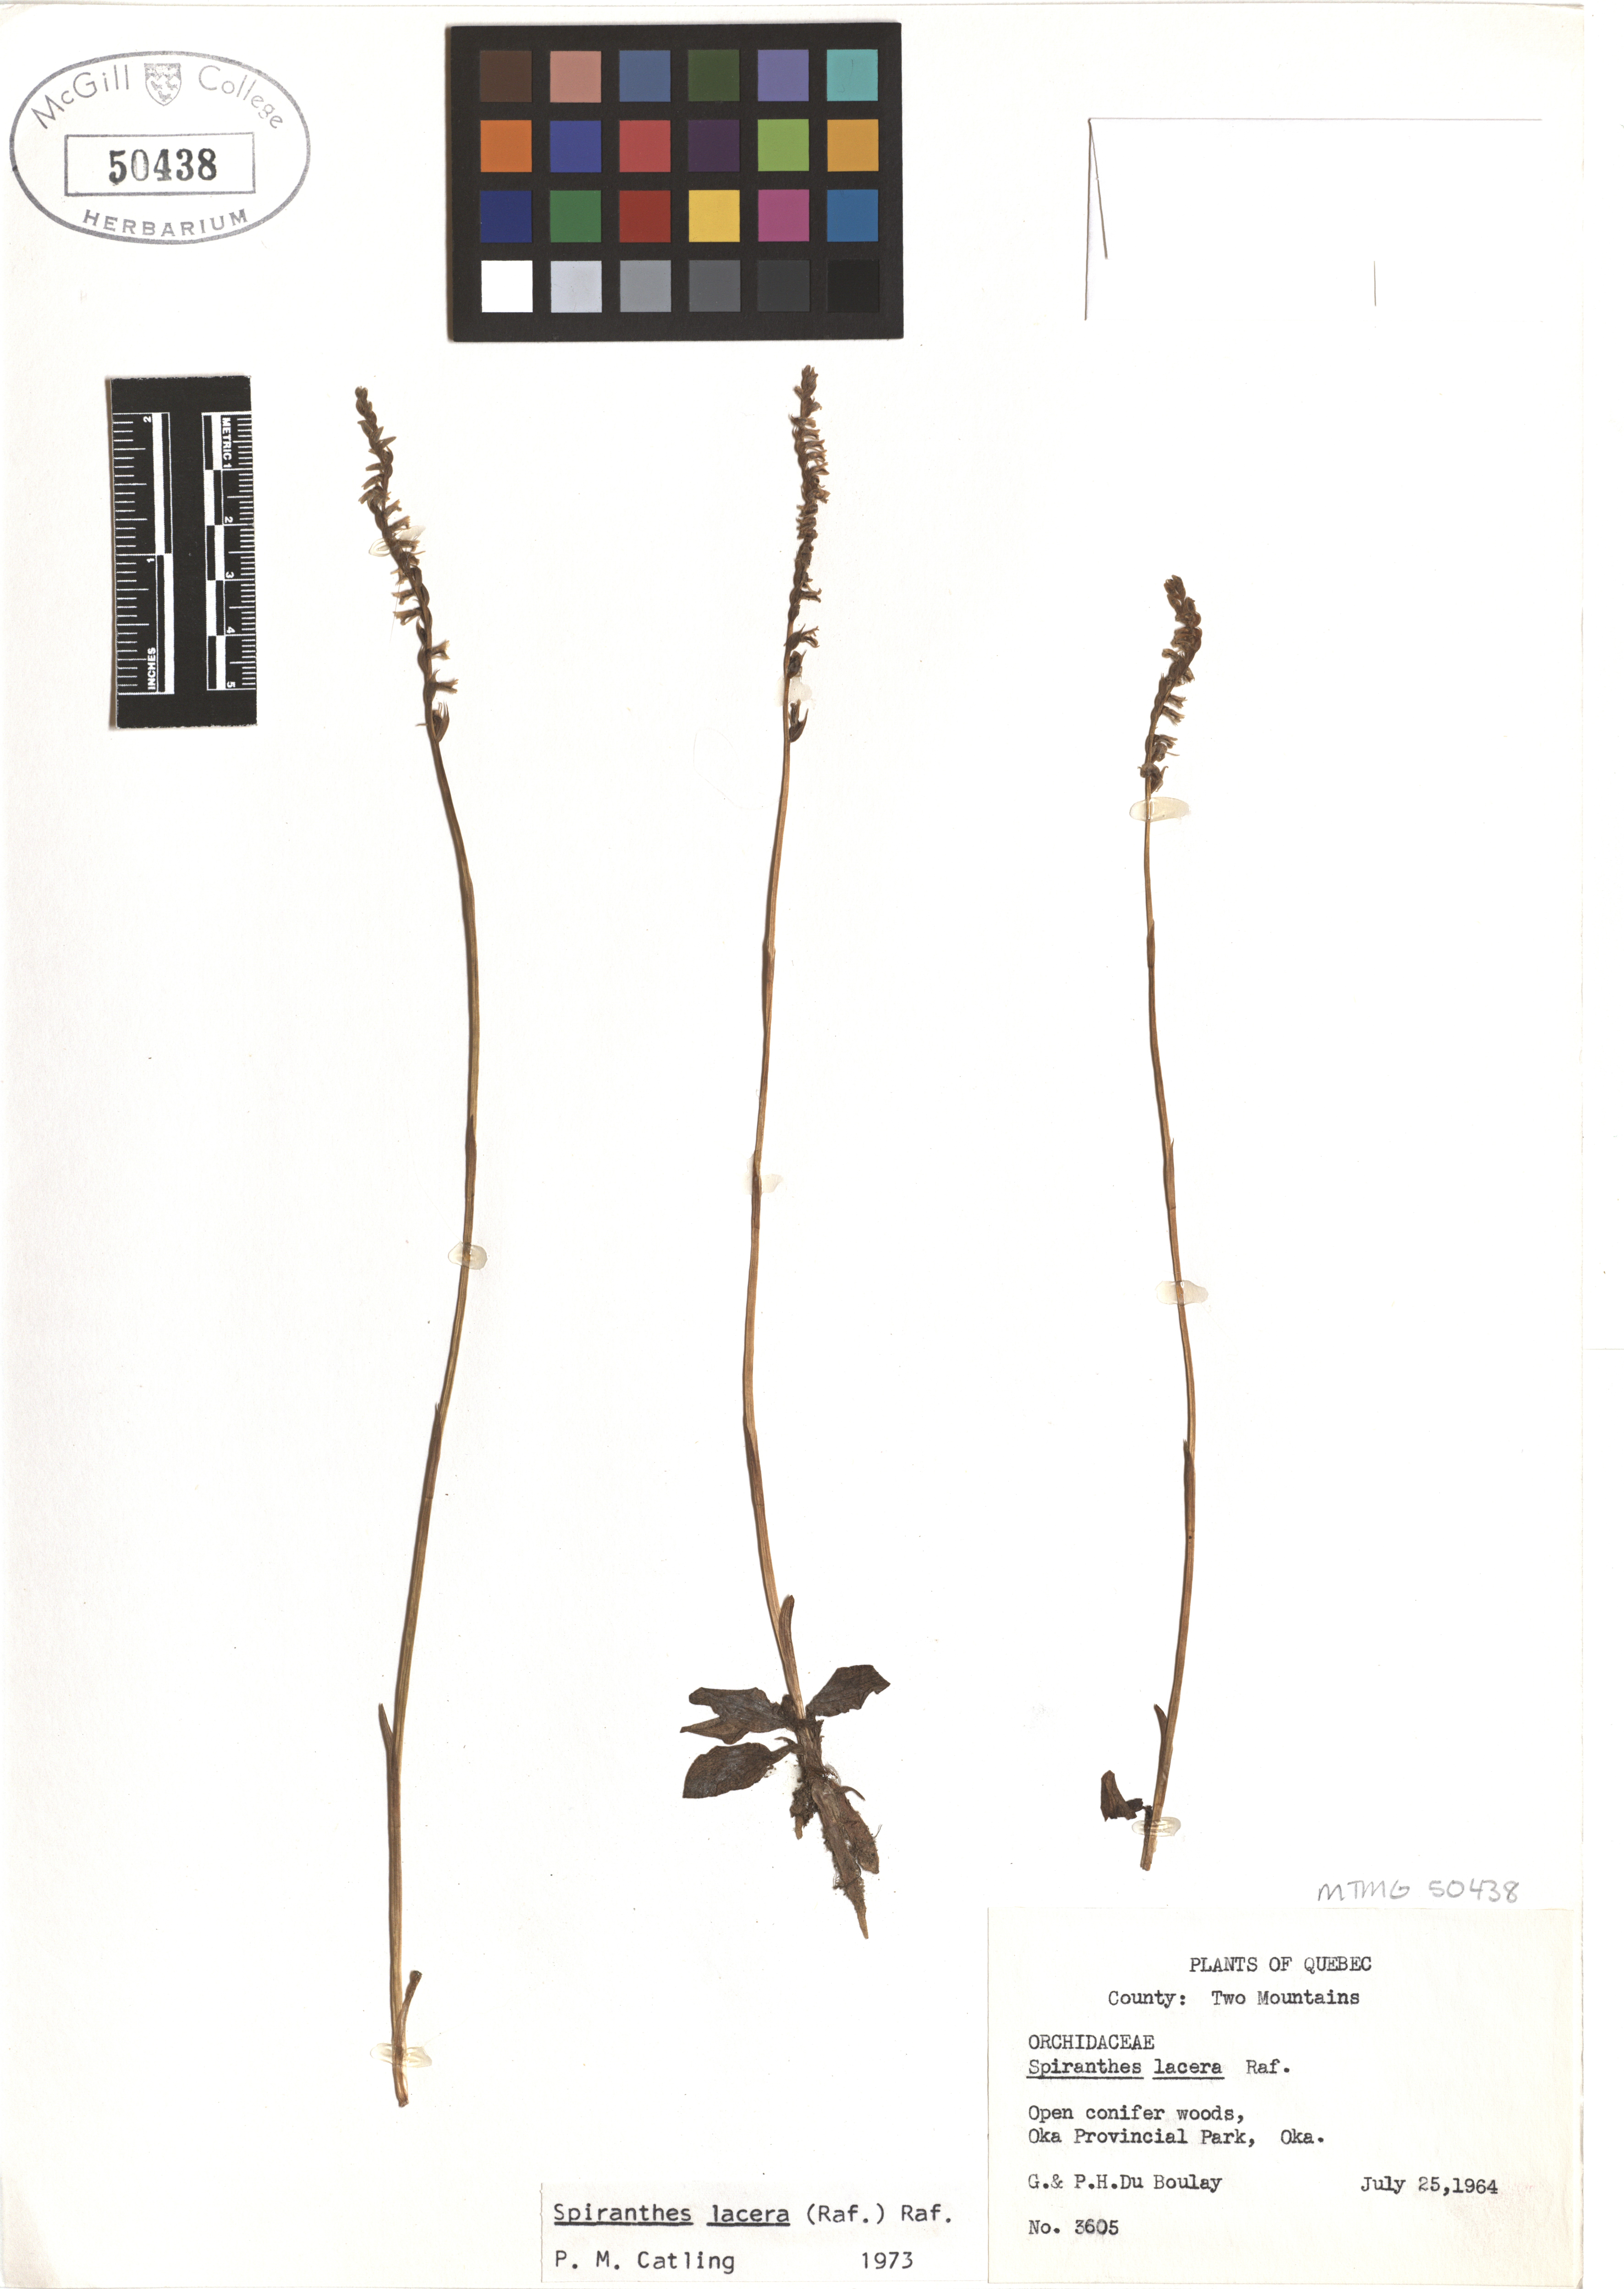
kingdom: Plantae
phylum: Tracheophyta
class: Liliopsida
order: Asparagales
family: Orchidaceae
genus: Spiranthes
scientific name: Spiranthes lacera
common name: Northern slender ladies'-tresses
